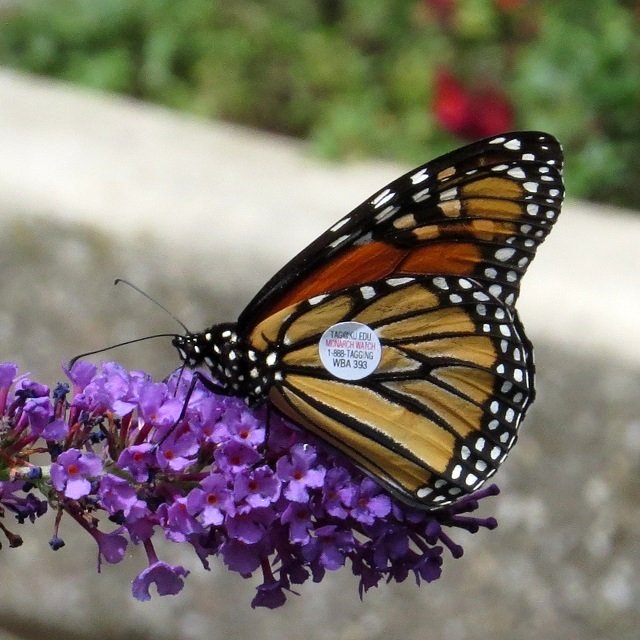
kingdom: Animalia
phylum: Arthropoda
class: Insecta
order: Lepidoptera
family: Nymphalidae
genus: Danaus
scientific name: Danaus plexippus
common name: Monarch
